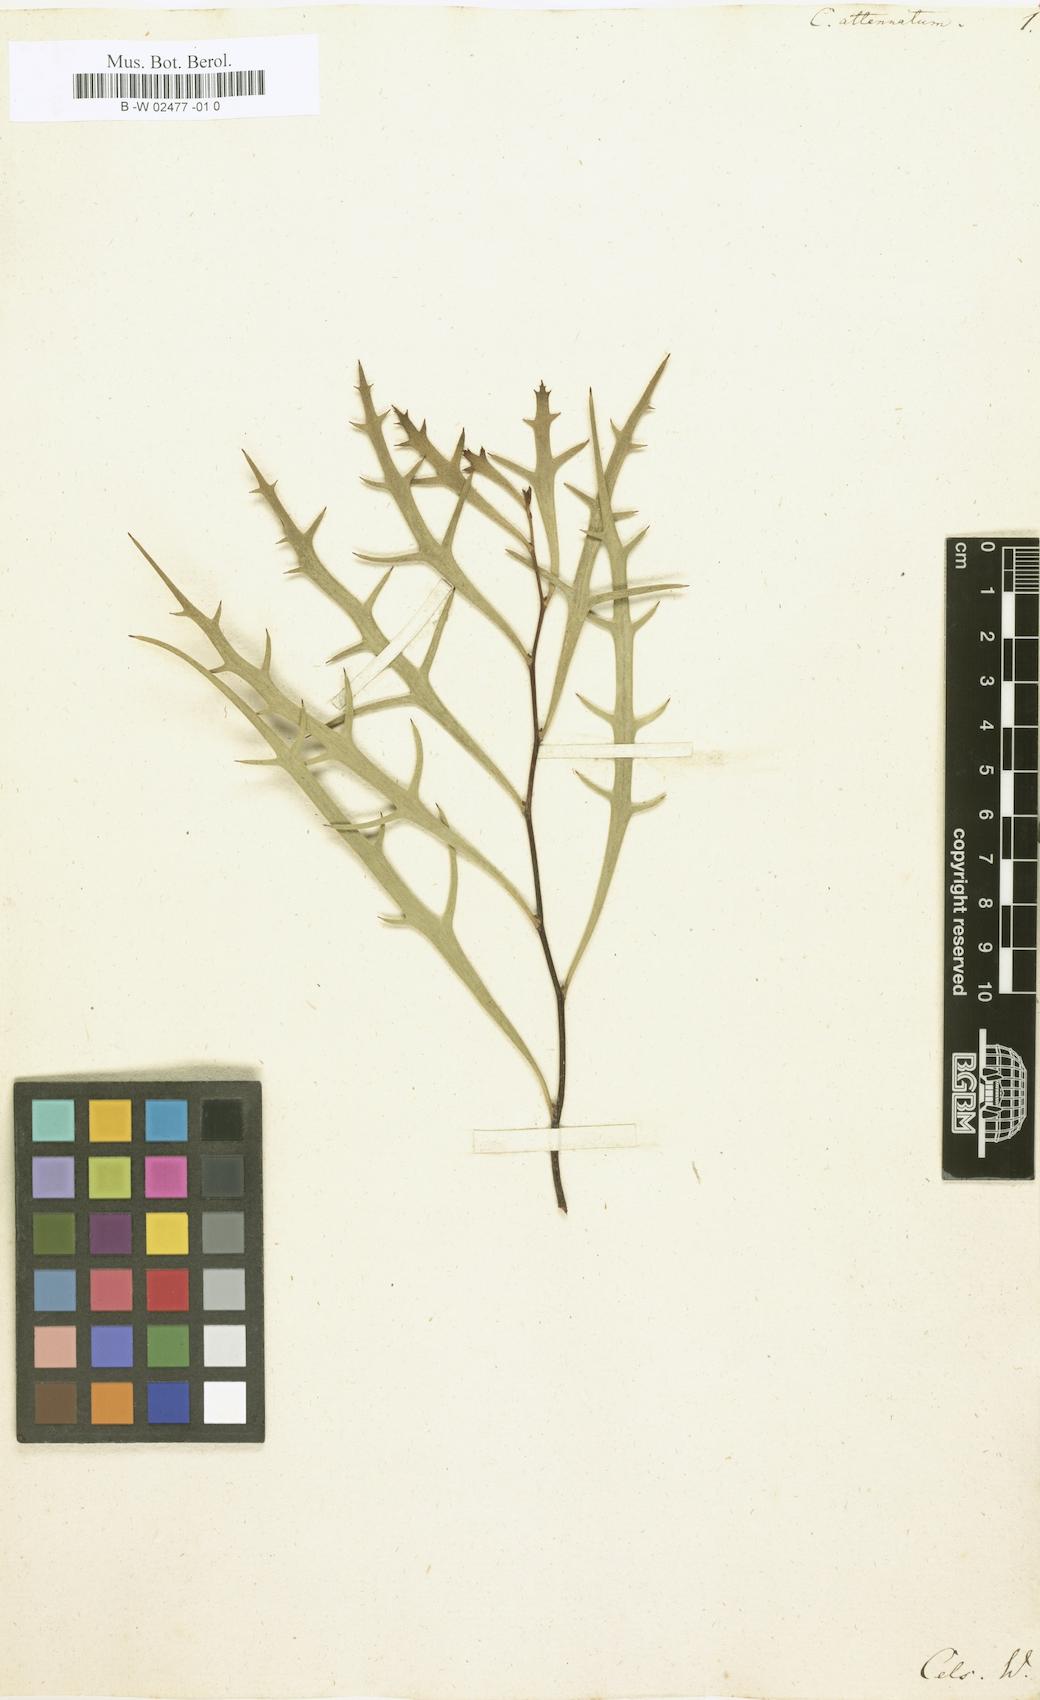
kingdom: Plantae
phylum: Tracheophyta
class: Magnoliopsida
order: Proteales
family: Proteaceae
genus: Hakea
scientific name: Hakea
